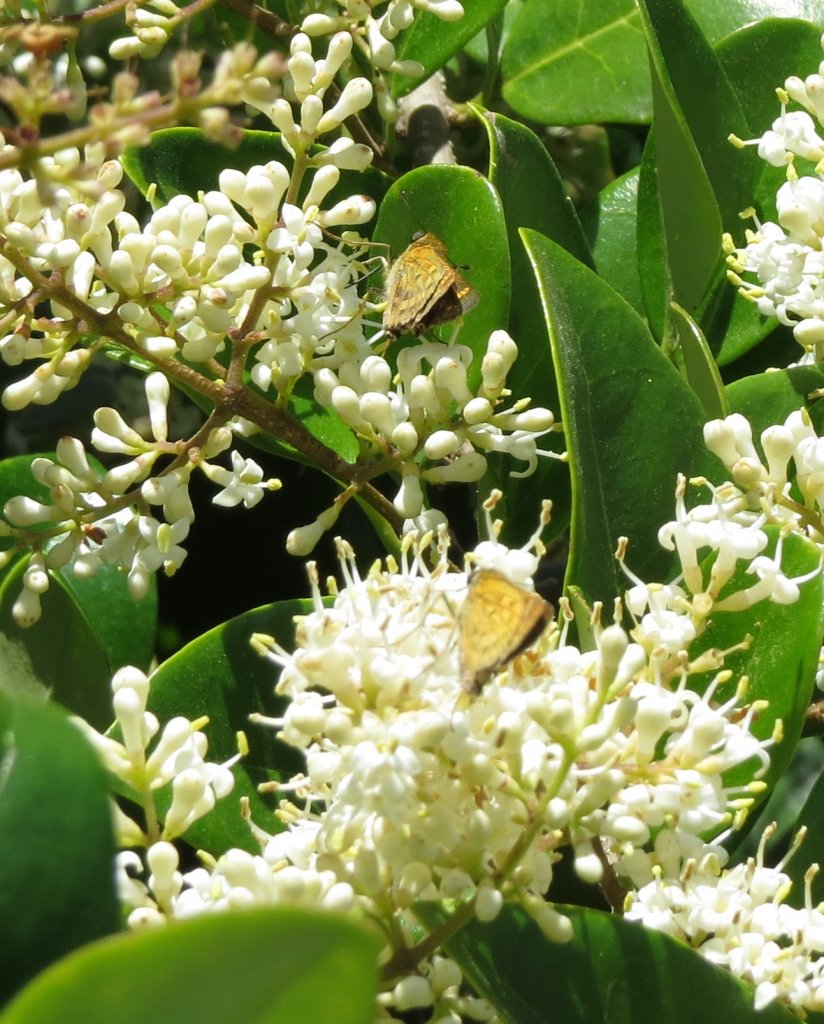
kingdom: Animalia
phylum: Arthropoda
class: Insecta
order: Lepidoptera
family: Hesperiidae
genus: Hylephila
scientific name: Hylephila phyleus
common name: Fiery Skipper
